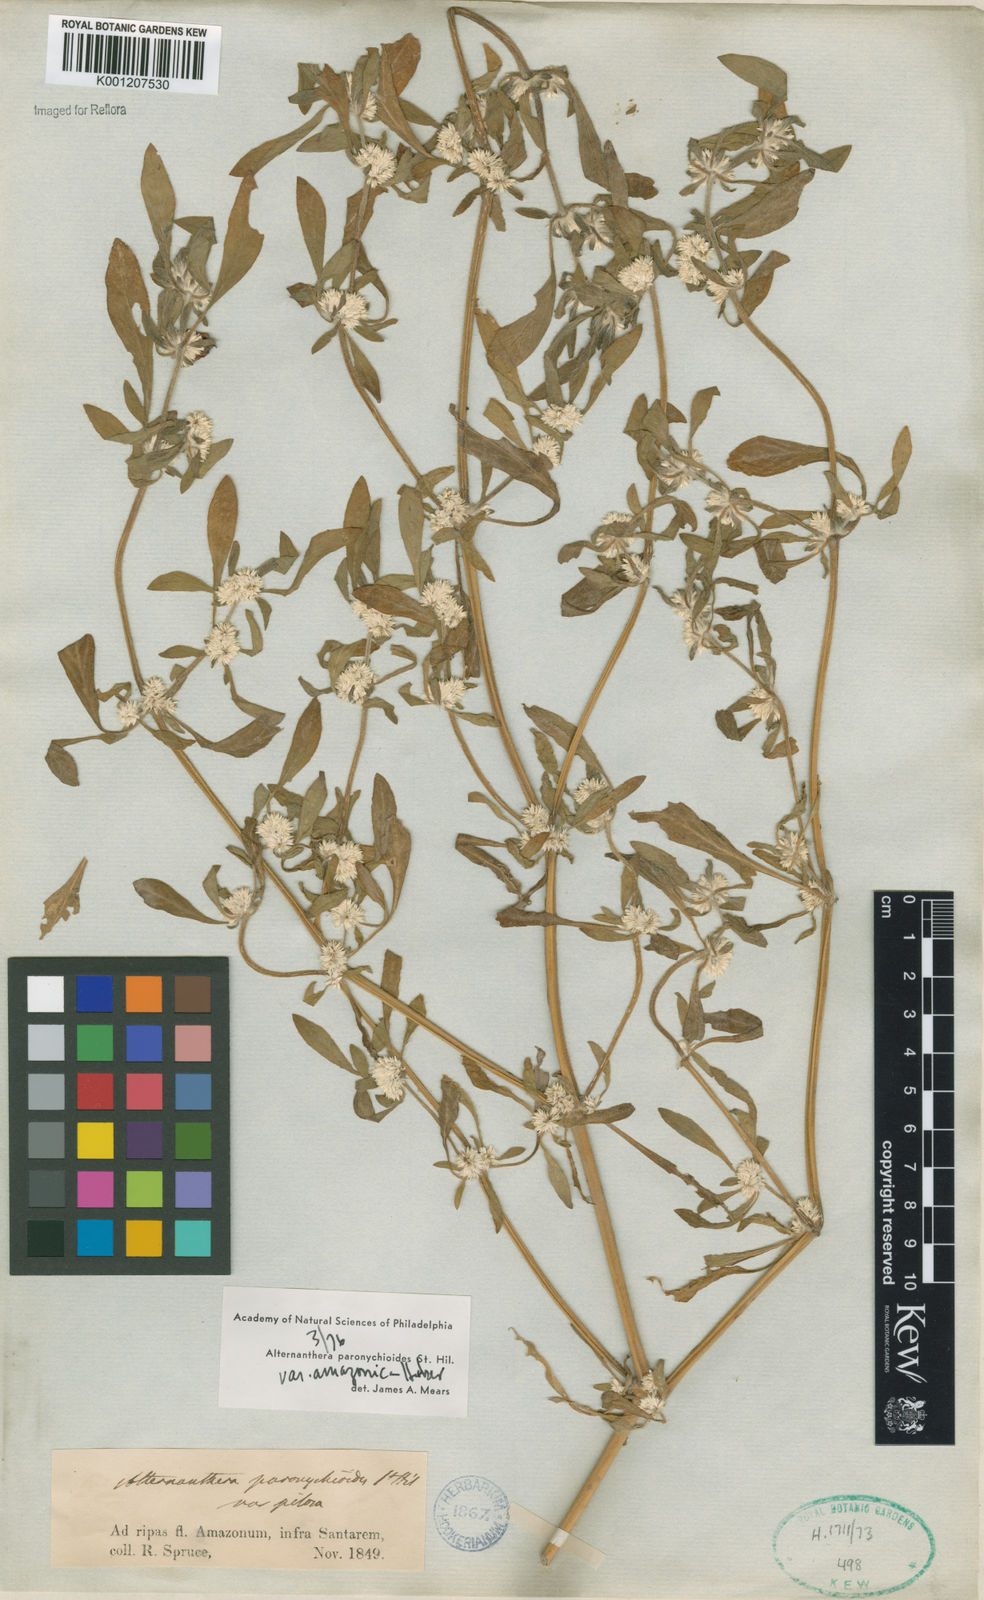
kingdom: Plantae
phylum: Tracheophyta
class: Magnoliopsida
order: Caryophyllales
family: Amaranthaceae
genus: Alternanthera
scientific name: Alternanthera paronychioides
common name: Smooth joyweed
